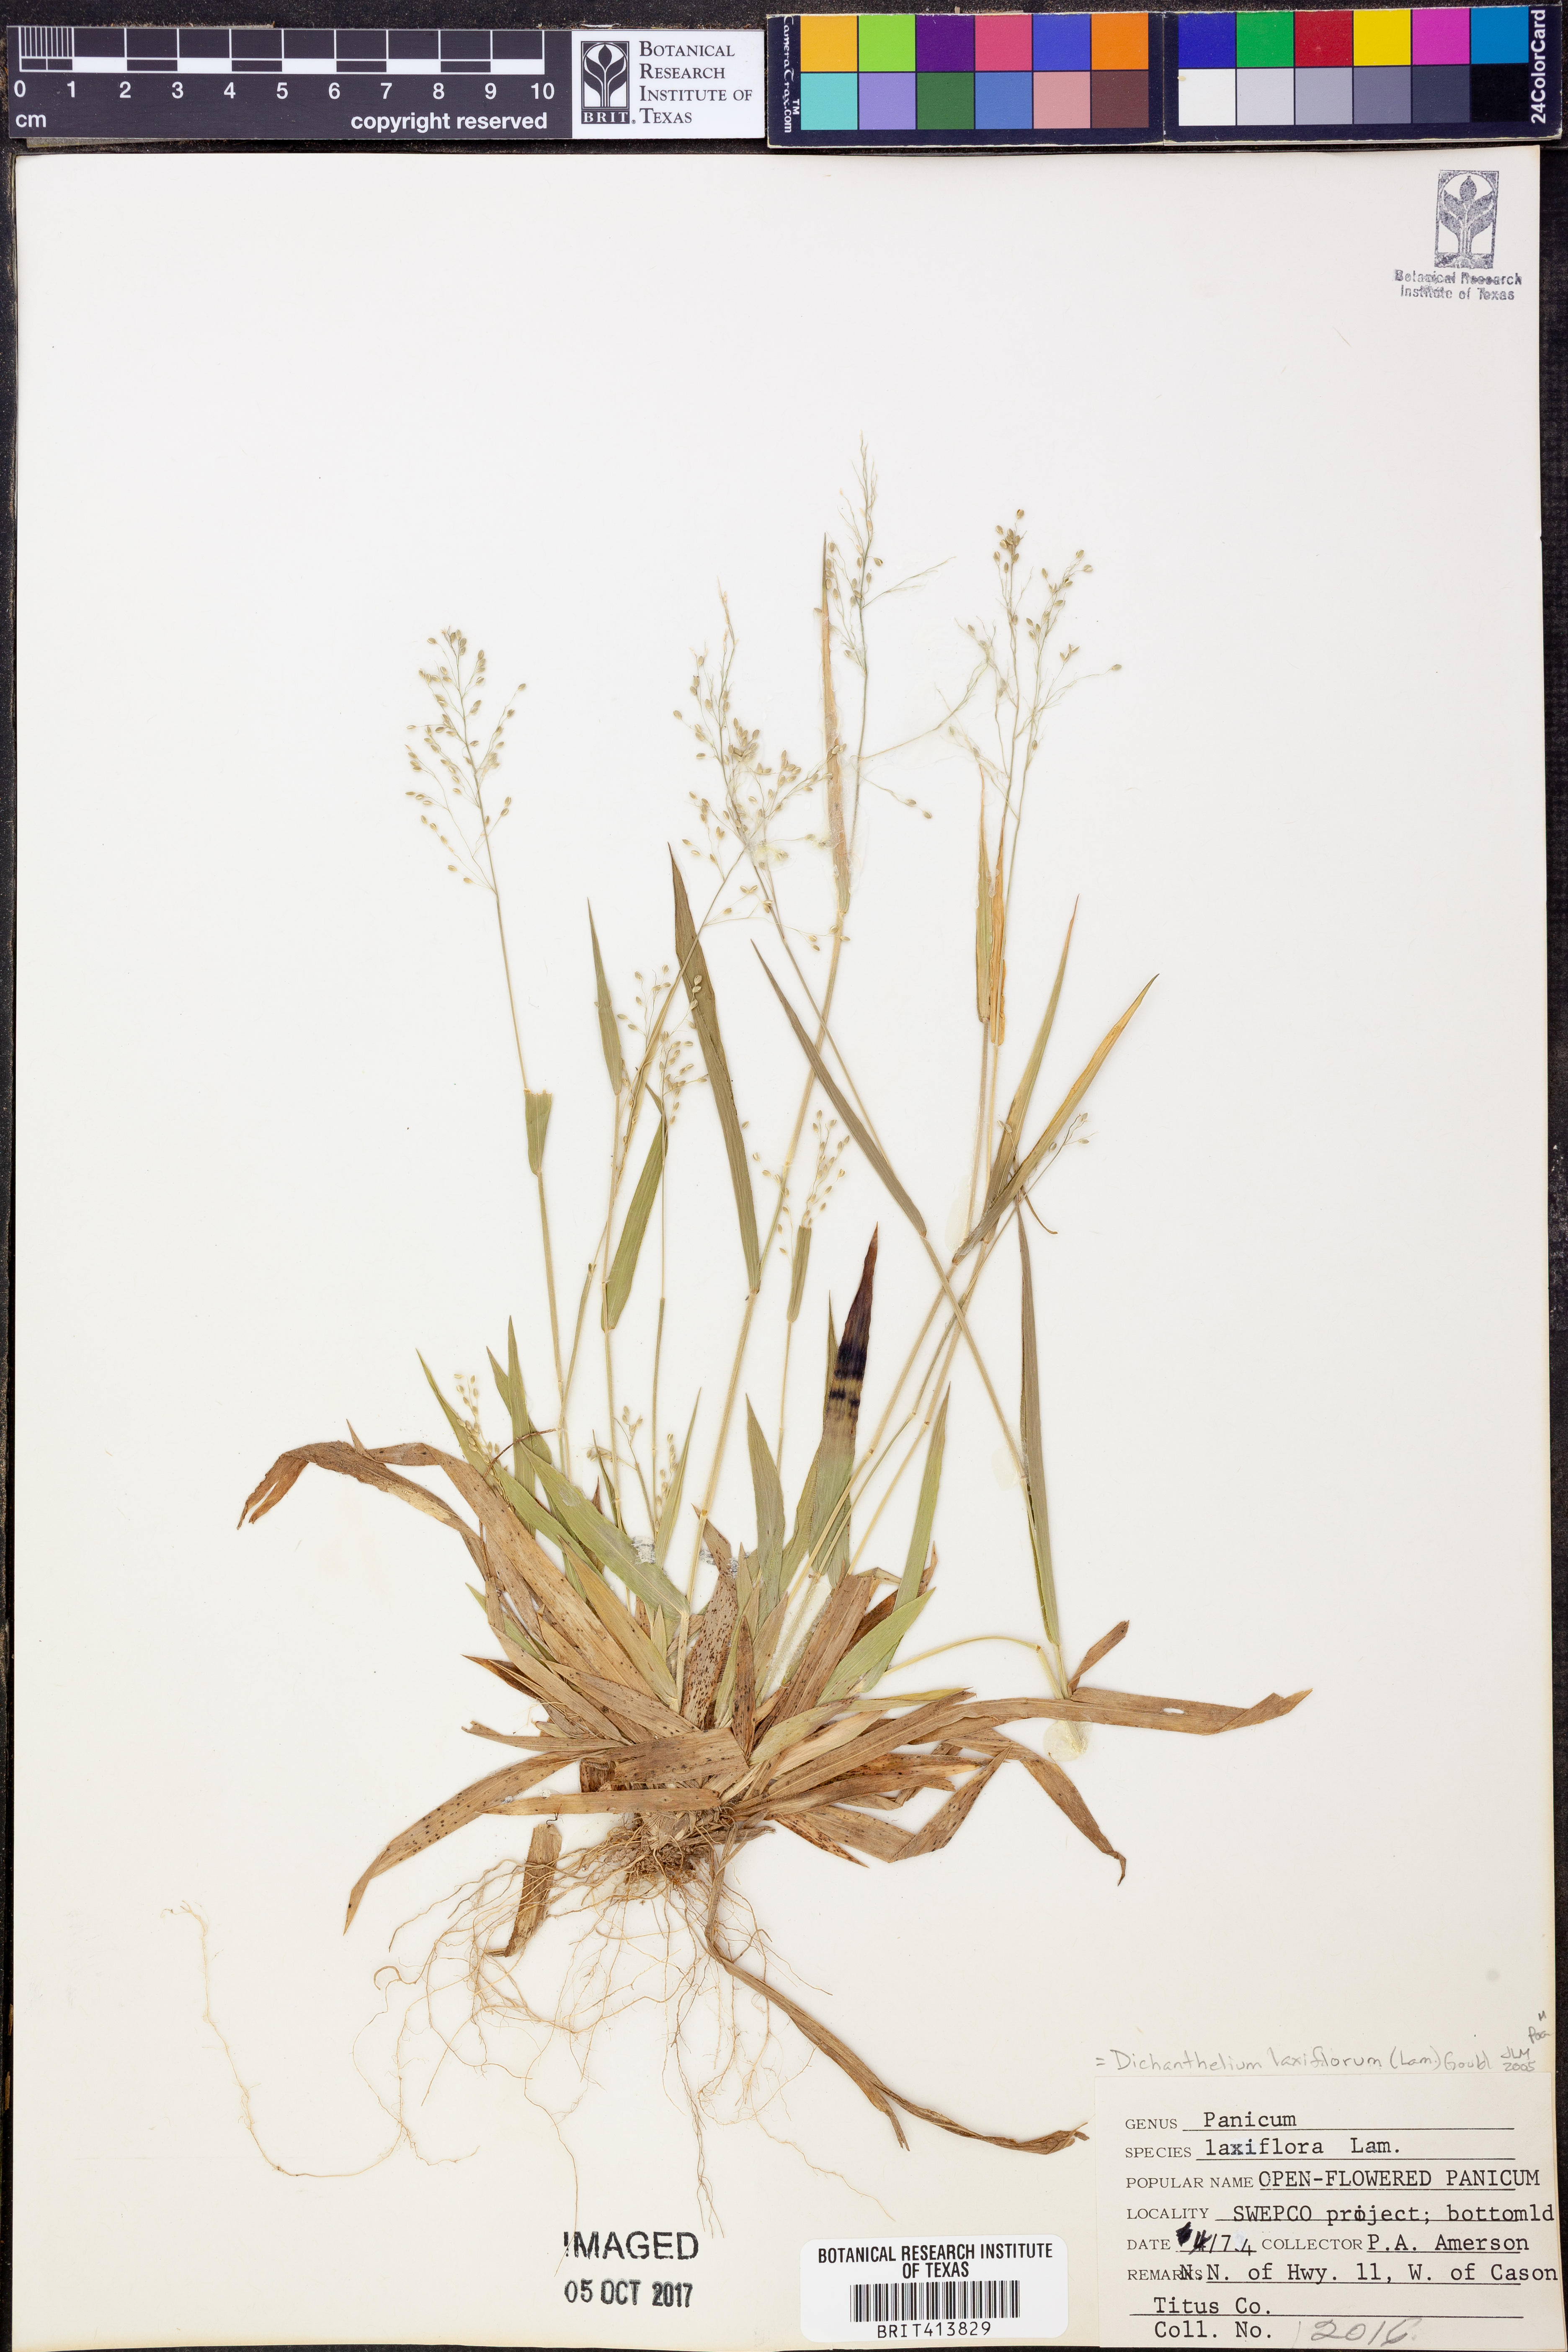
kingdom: Plantae
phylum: Tracheophyta
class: Liliopsida
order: Poales
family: Poaceae
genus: Dichanthelium
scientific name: Dichanthelium laxiflorum
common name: Soft-tuft panic grass
